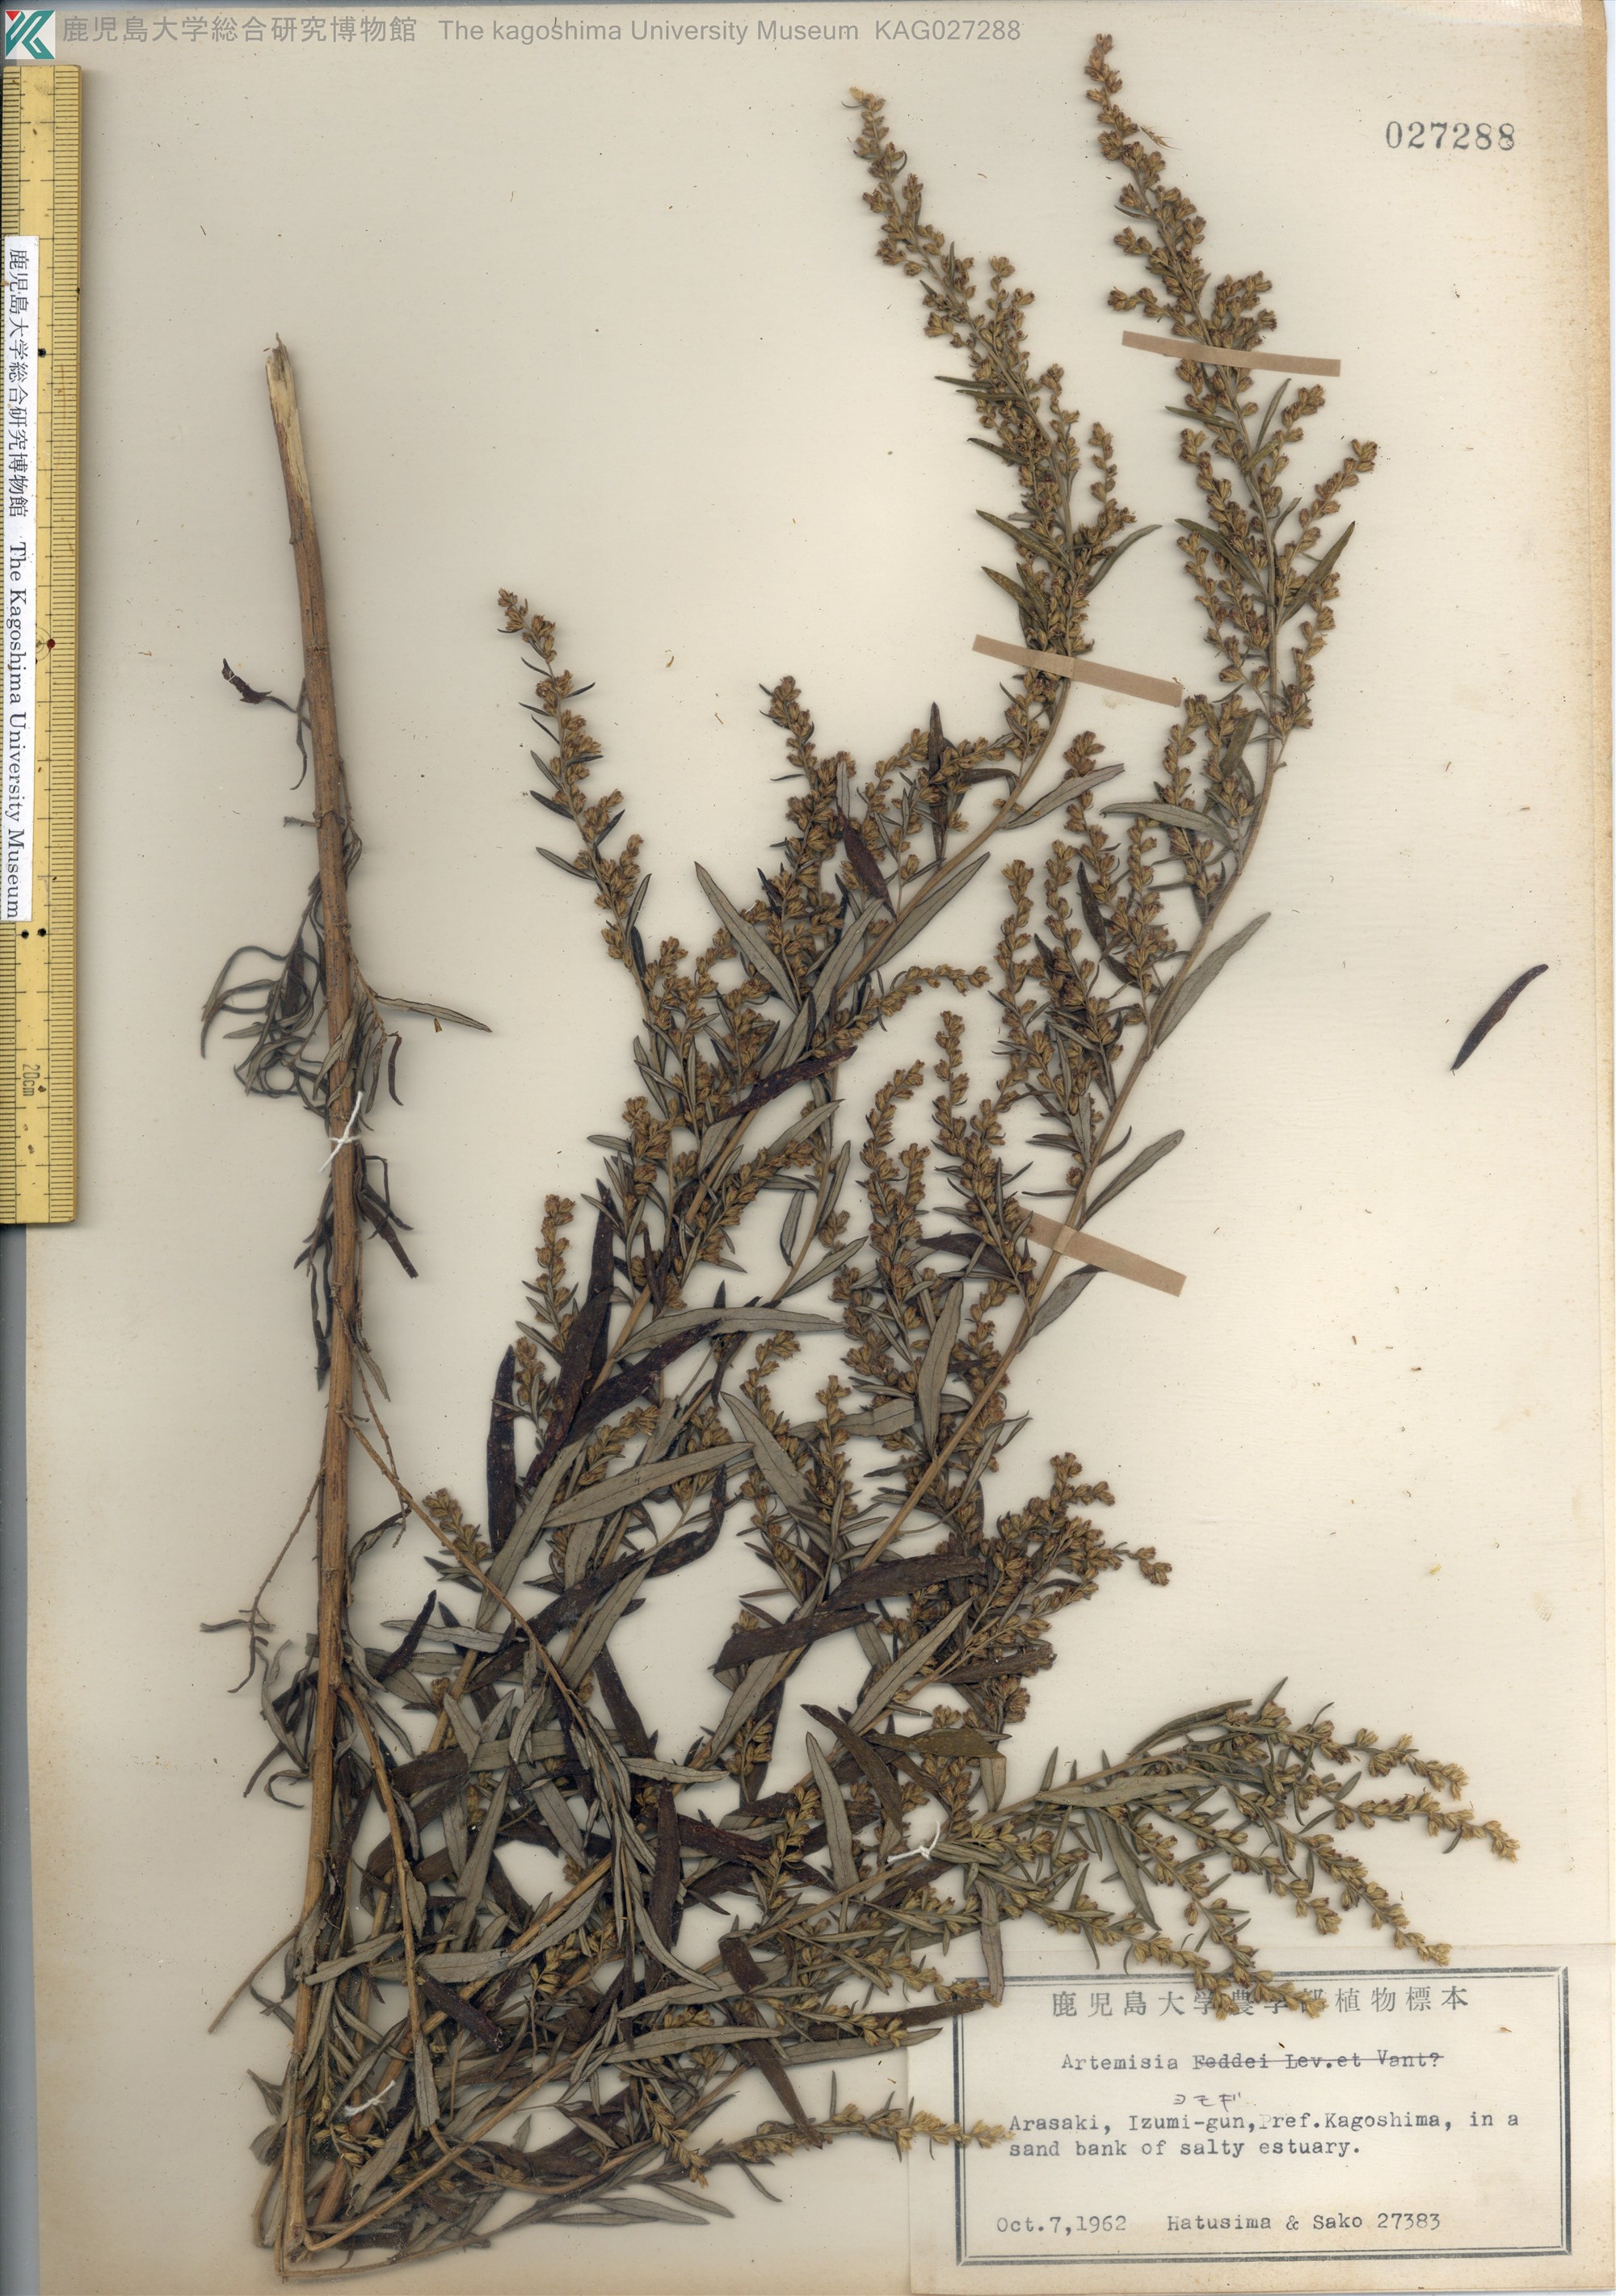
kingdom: Plantae
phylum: Tracheophyta
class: Magnoliopsida
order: Asterales
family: Asteraceae
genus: Artemisia
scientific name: Artemisia princeps
